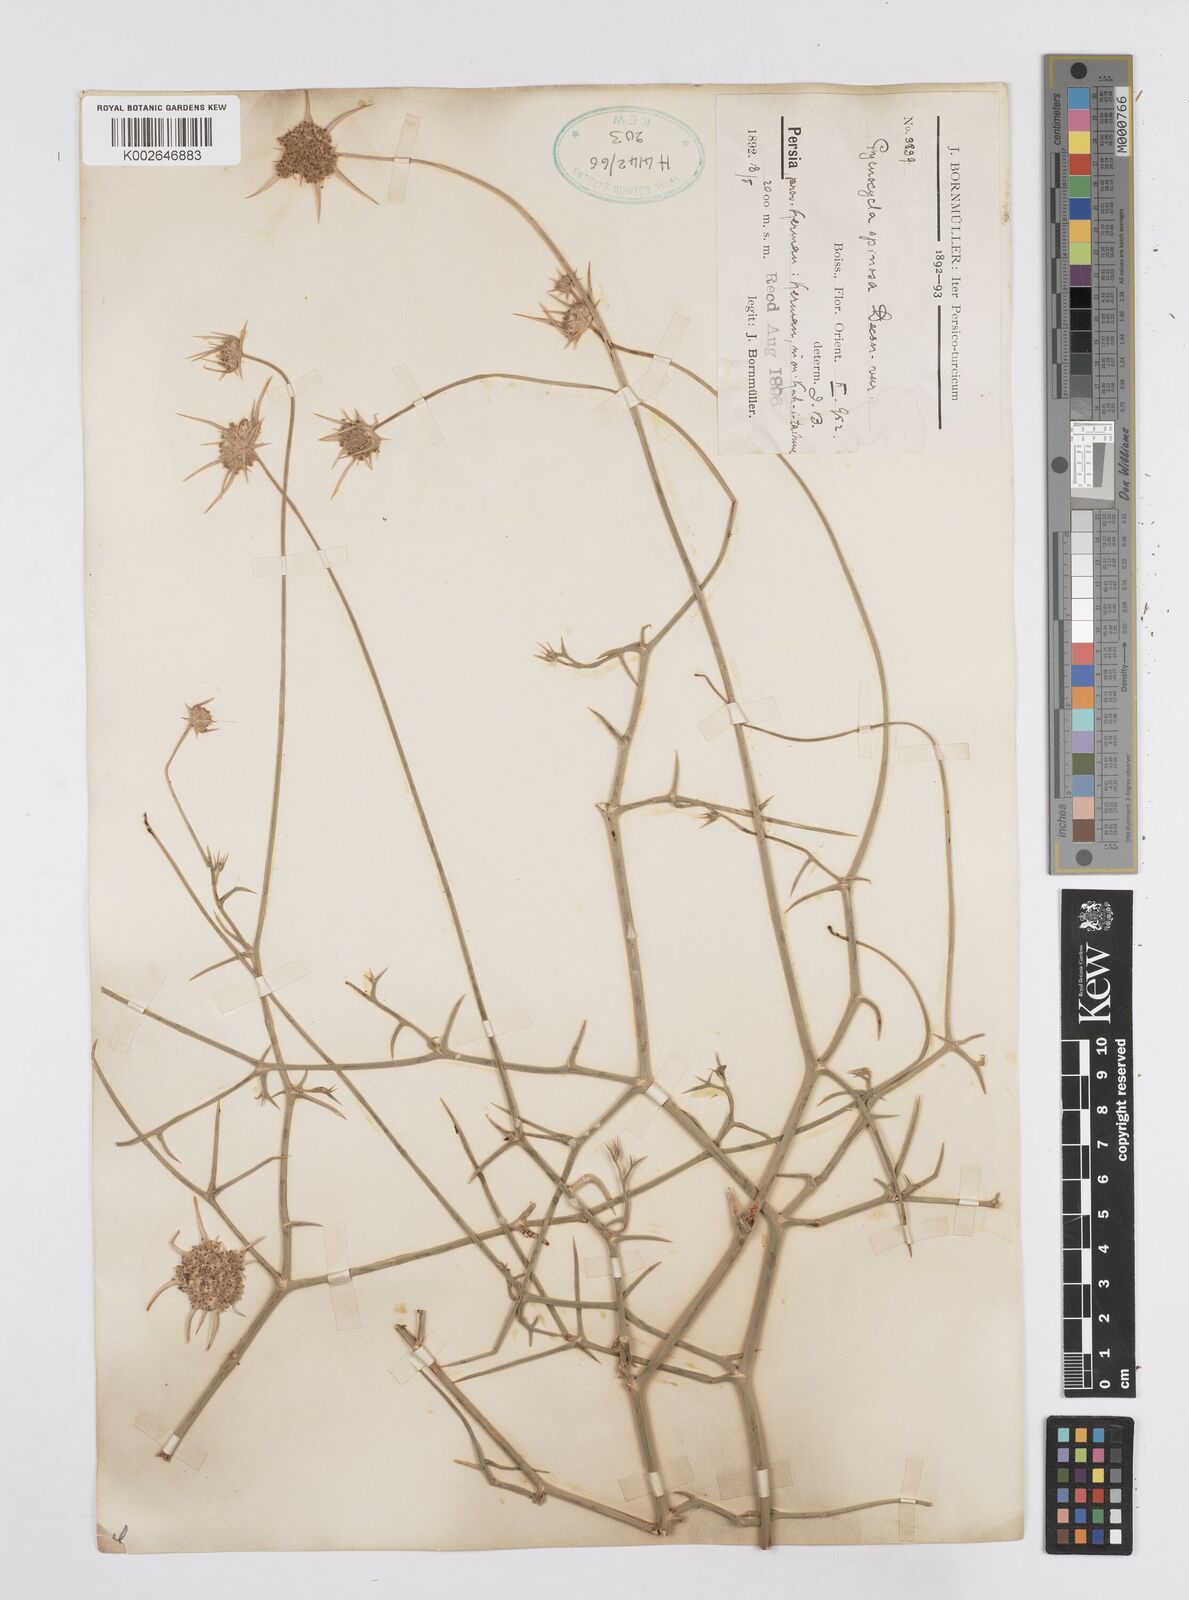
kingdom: Plantae
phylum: Tracheophyta
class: Magnoliopsida
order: Apiales
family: Apiaceae
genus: Pycnocycla
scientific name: Pycnocycla spinosa
